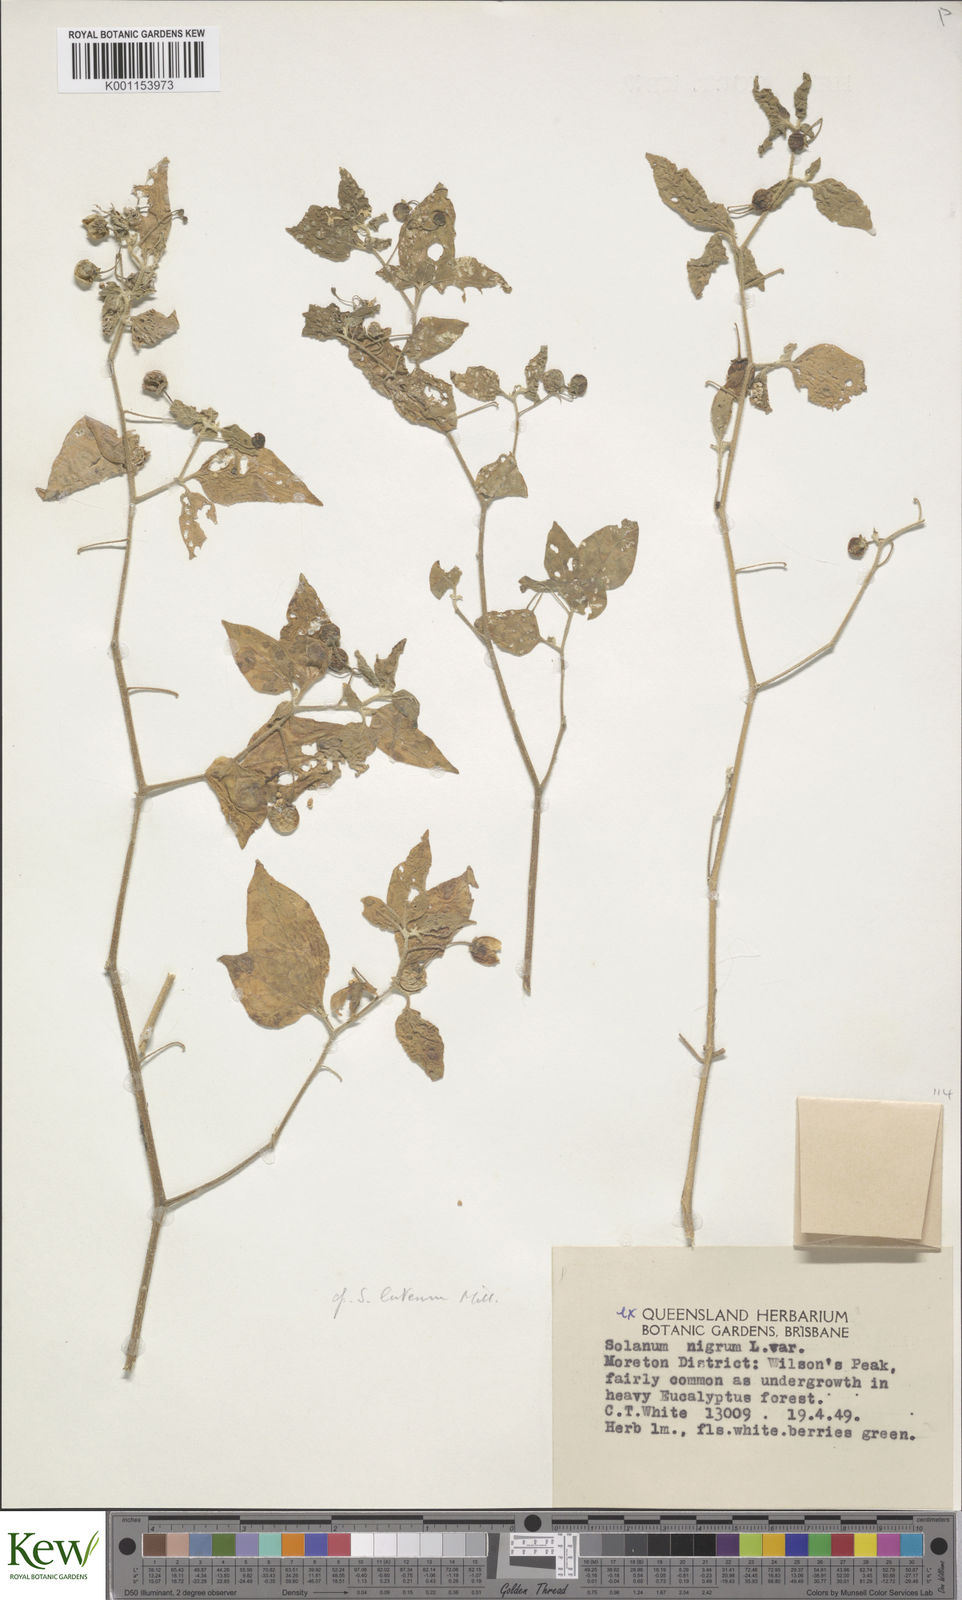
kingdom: Plantae
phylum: Tracheophyta
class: Magnoliopsida
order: Solanales
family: Solanaceae
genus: Solanum
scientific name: Solanum villosum
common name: Red nightshade
